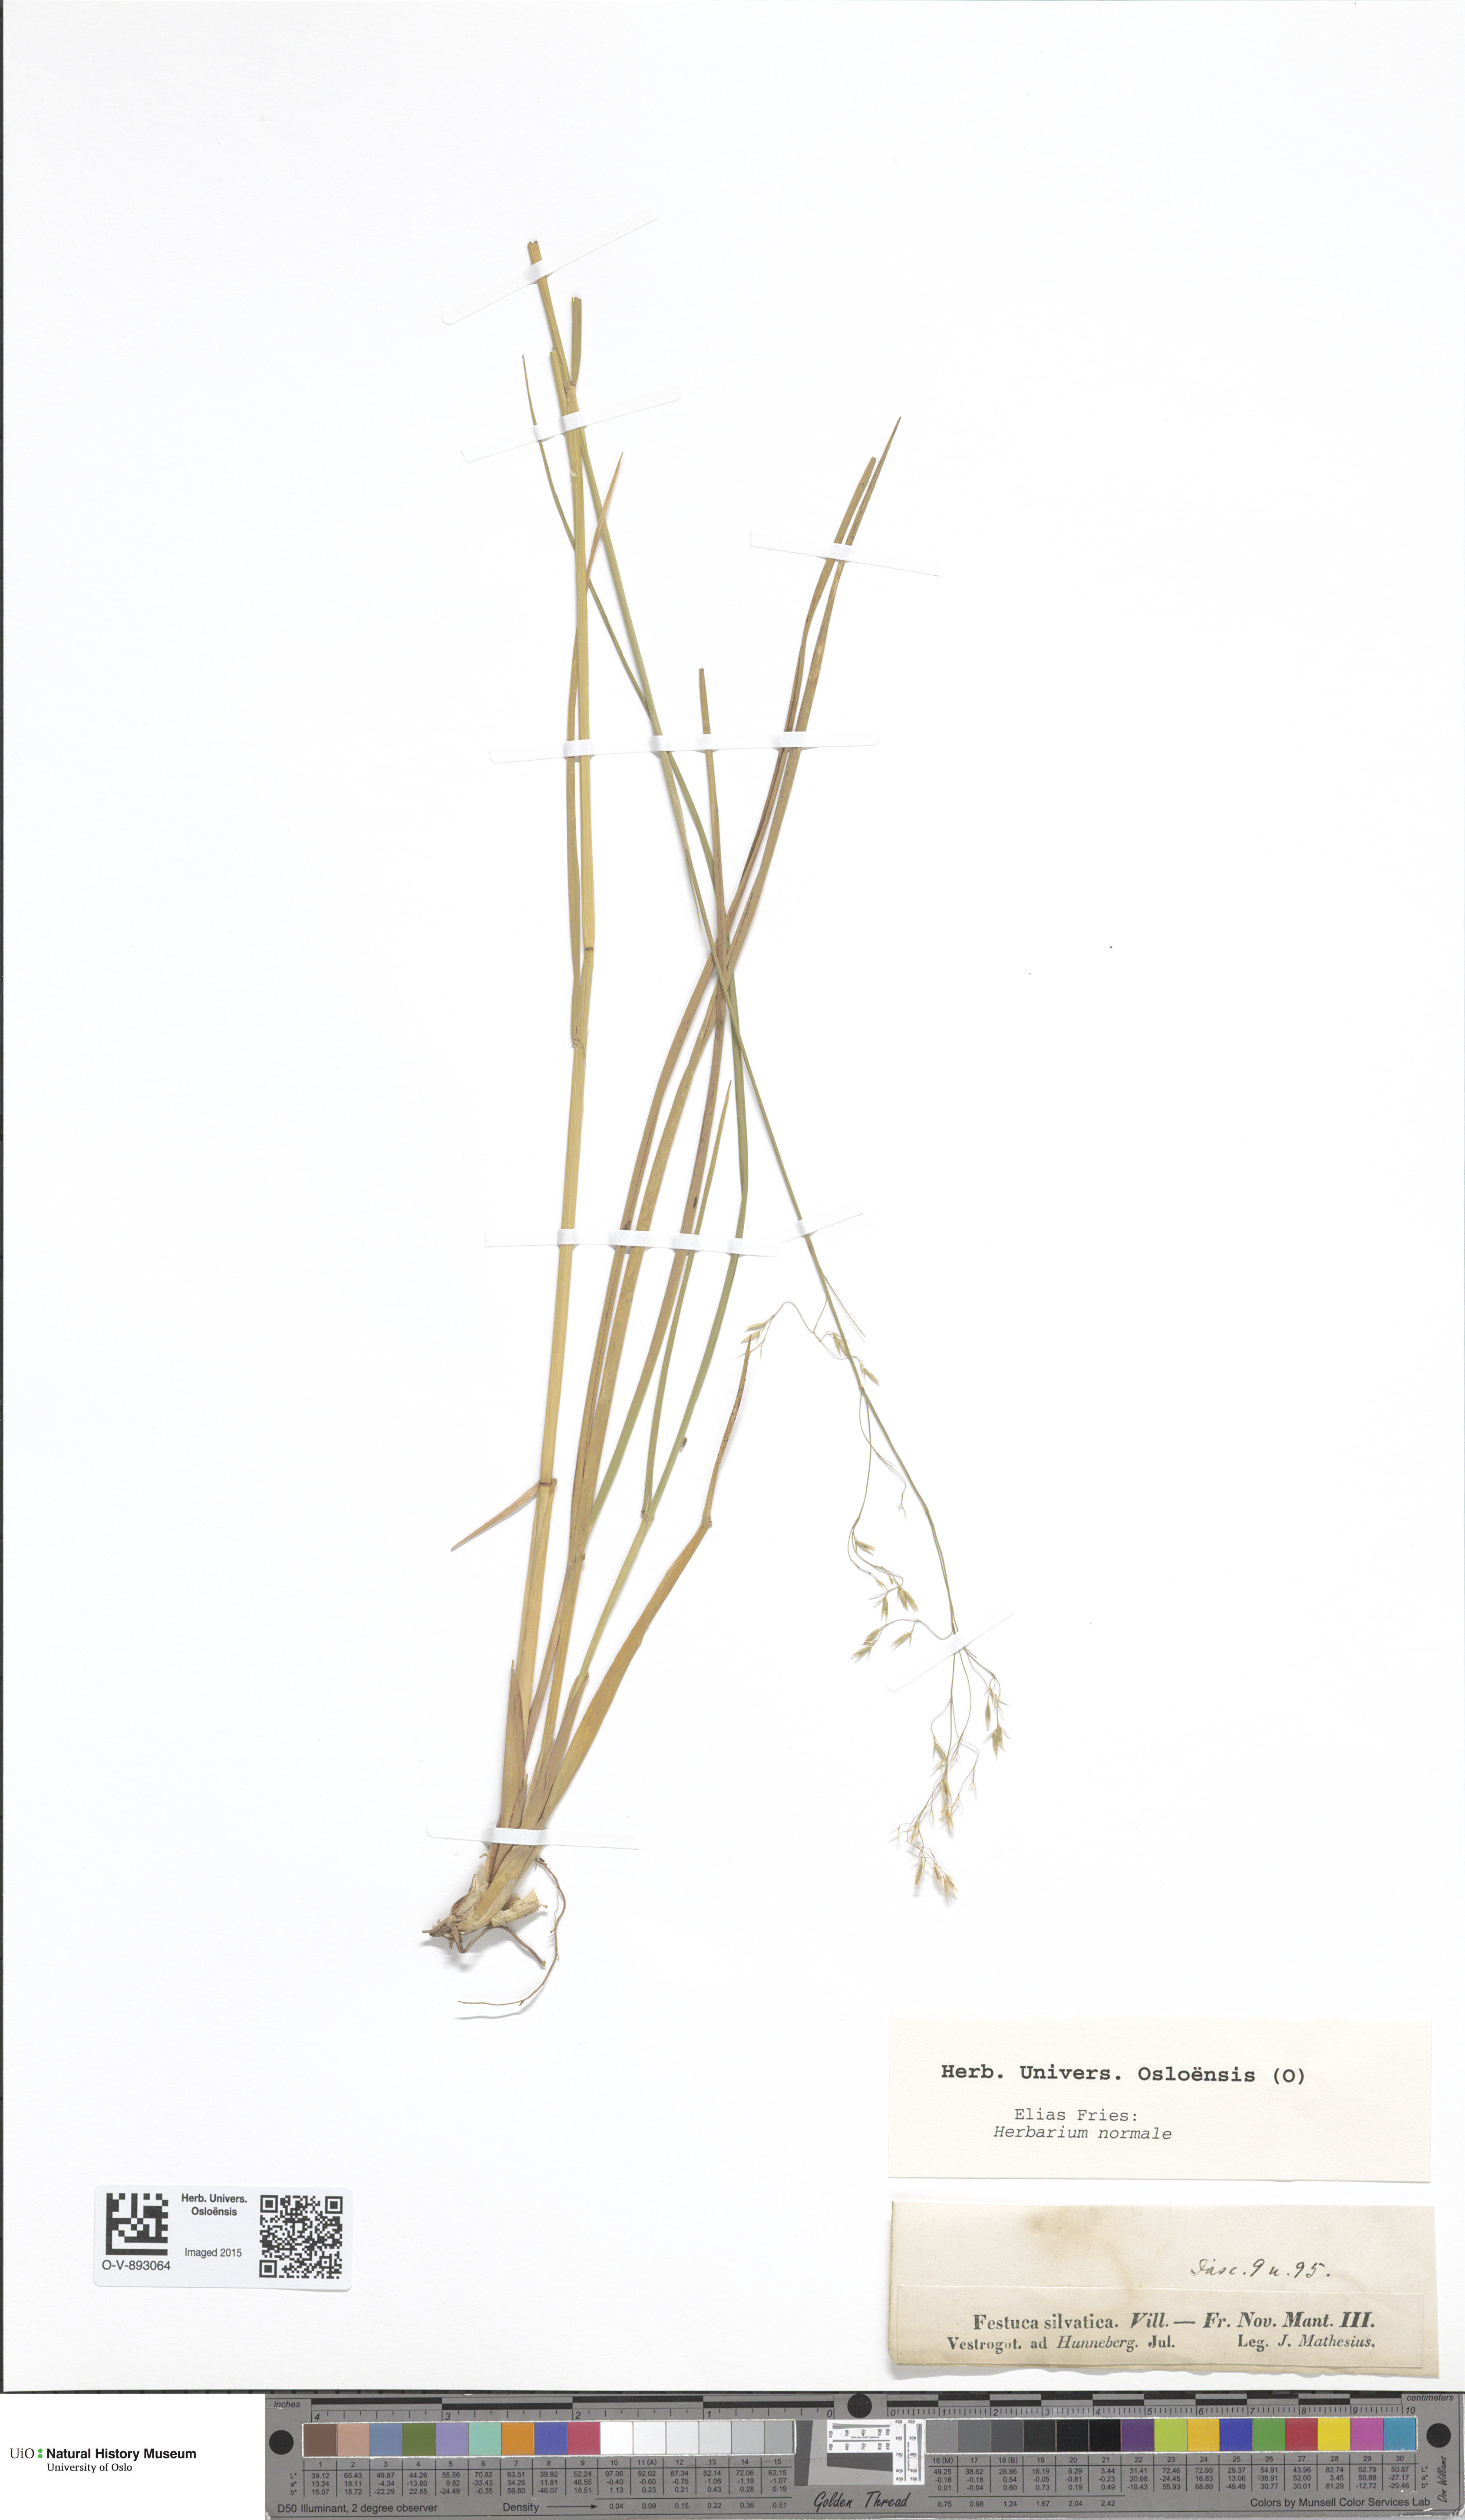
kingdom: Plantae
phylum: Tracheophyta
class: Liliopsida
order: Poales
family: Poaceae
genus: Festuca
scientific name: Festuca altissima
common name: Wood fescue
